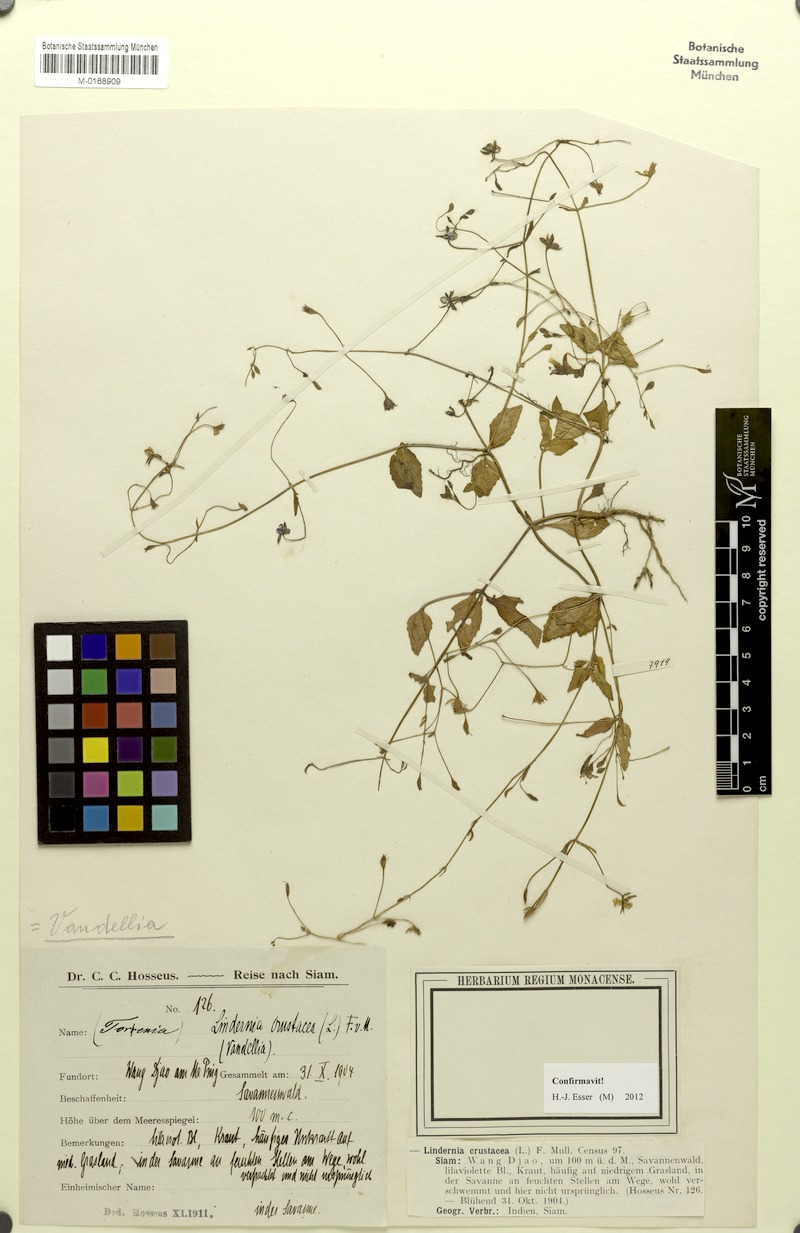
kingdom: Plantae
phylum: Tracheophyta
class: Magnoliopsida
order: Lamiales
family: Linderniaceae
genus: Torenia
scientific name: Torenia crustacea
